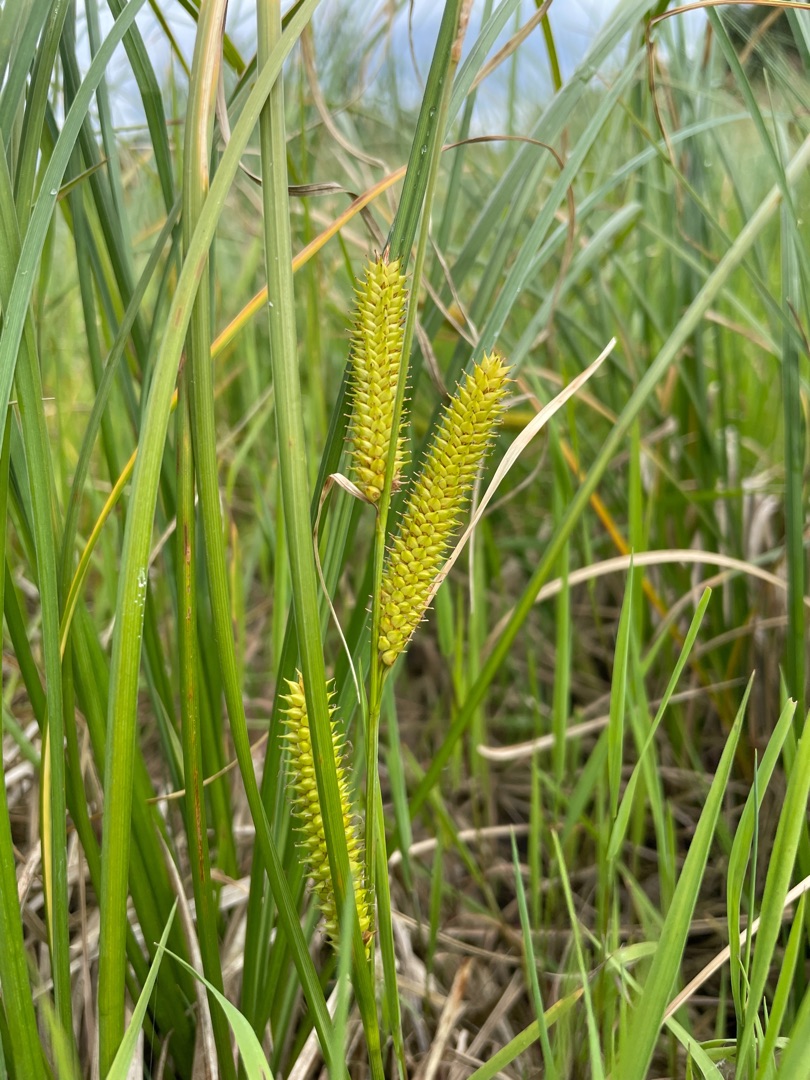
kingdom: Plantae
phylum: Tracheophyta
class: Liliopsida
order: Poales
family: Cyperaceae
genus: Carex
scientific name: Carex rostrata
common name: Næb-star
